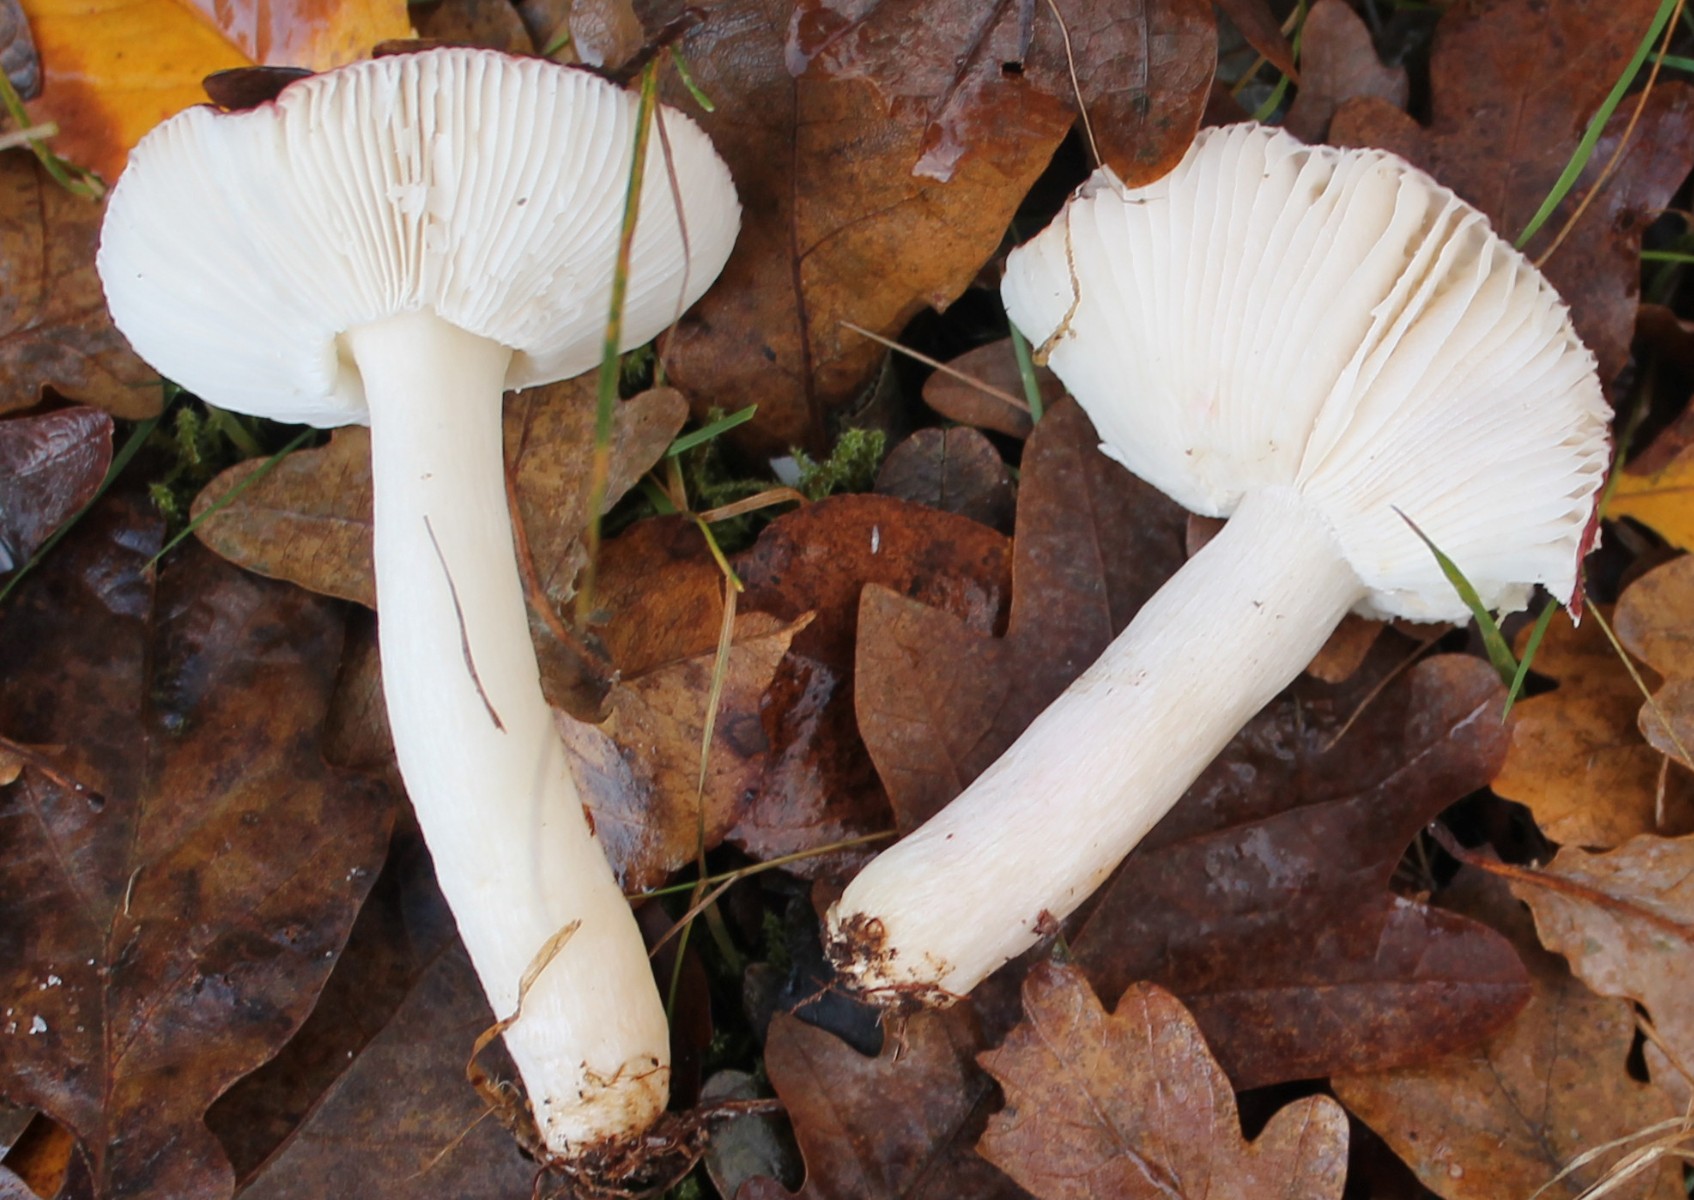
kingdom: Fungi
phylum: Basidiomycota
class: Agaricomycetes
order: Russulales
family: Russulaceae
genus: Russula
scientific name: Russula
